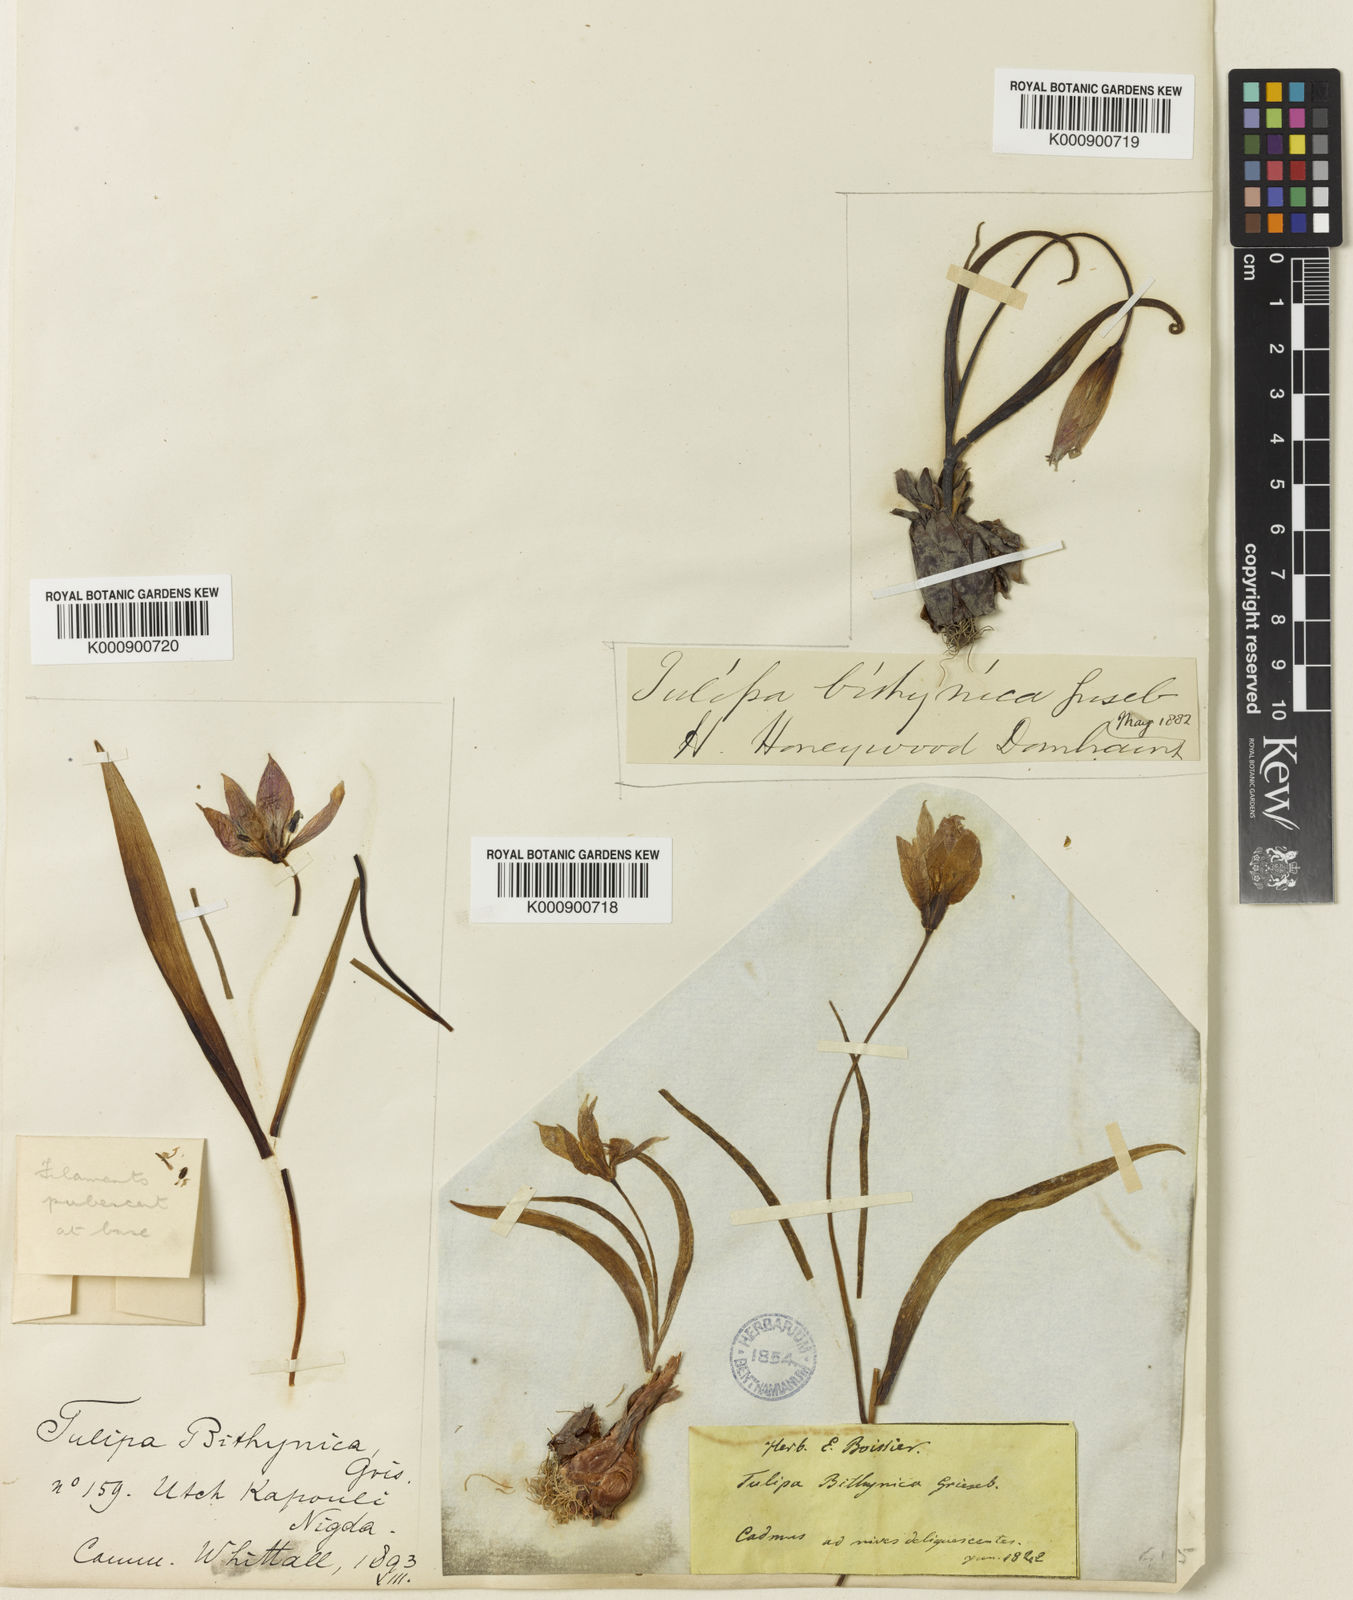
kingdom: Plantae
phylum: Tracheophyta
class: Liliopsida
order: Liliales
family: Liliaceae
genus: Tulipa
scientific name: Tulipa orphanidea
